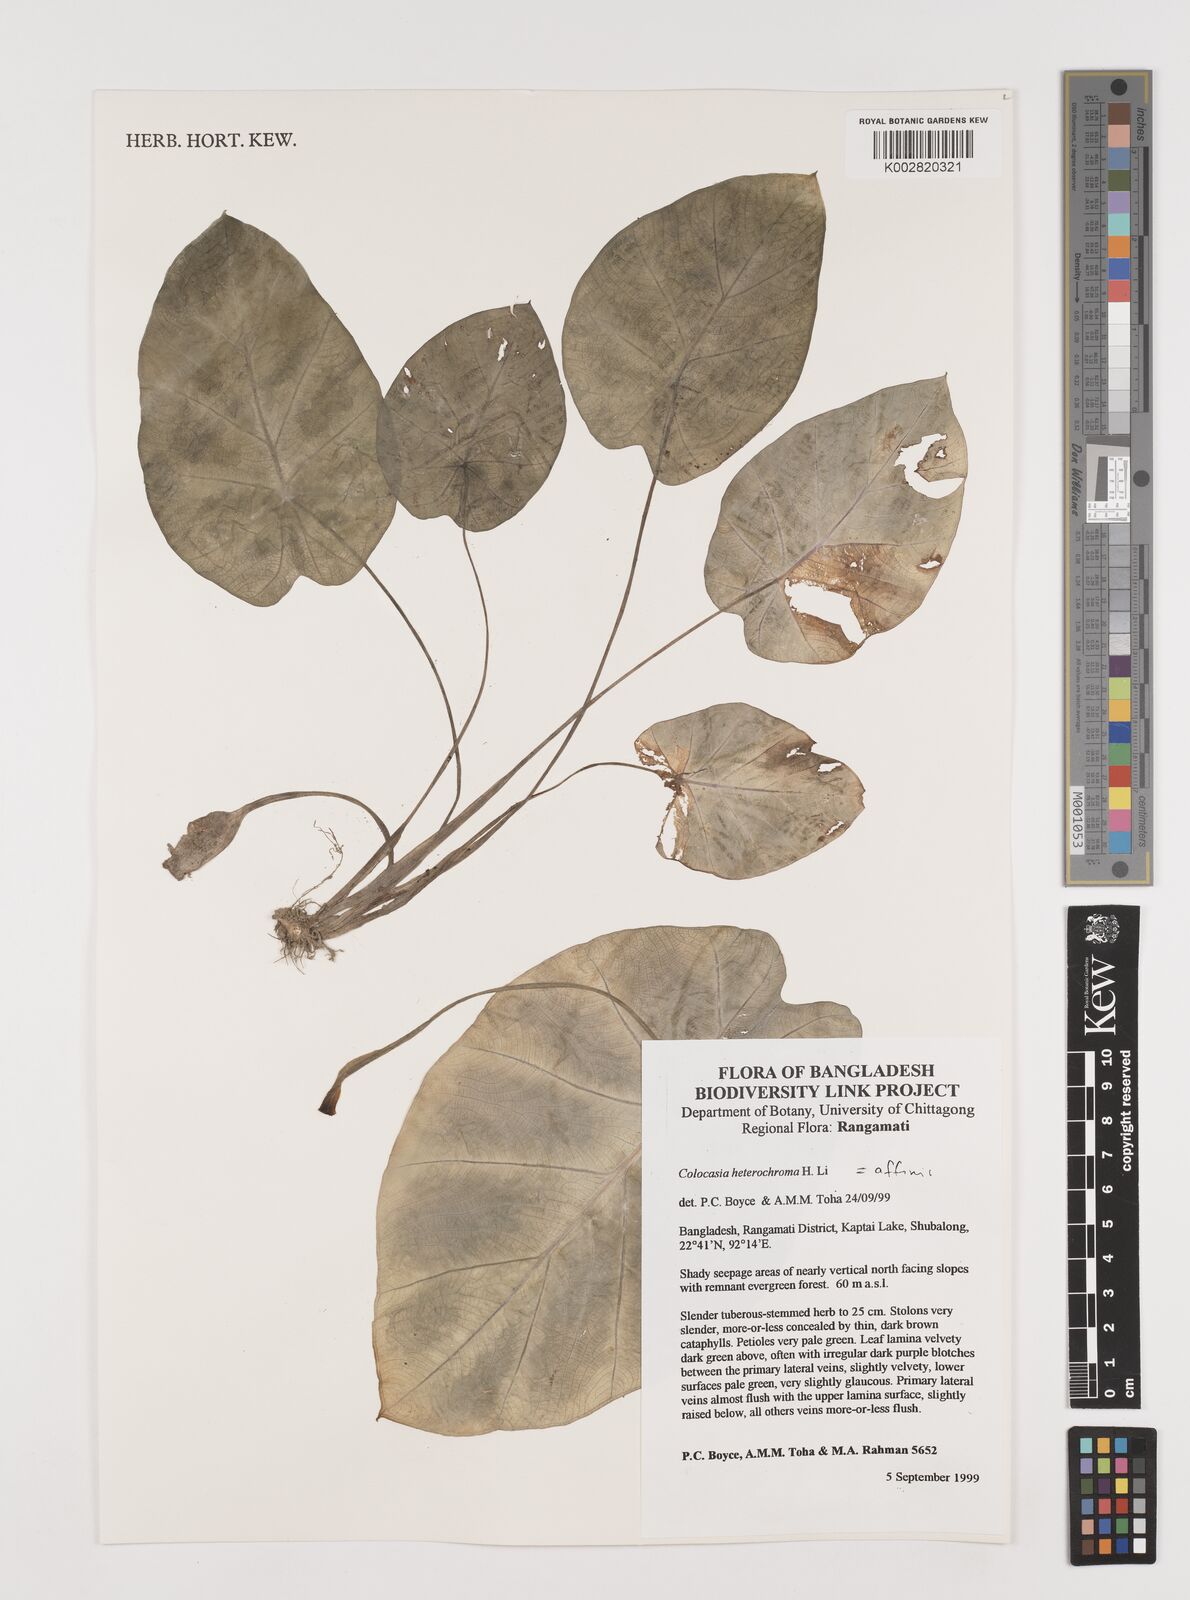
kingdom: Plantae
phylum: Tracheophyta
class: Liliopsida
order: Alismatales
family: Araceae
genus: Colocasia
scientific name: Colocasia affinis
